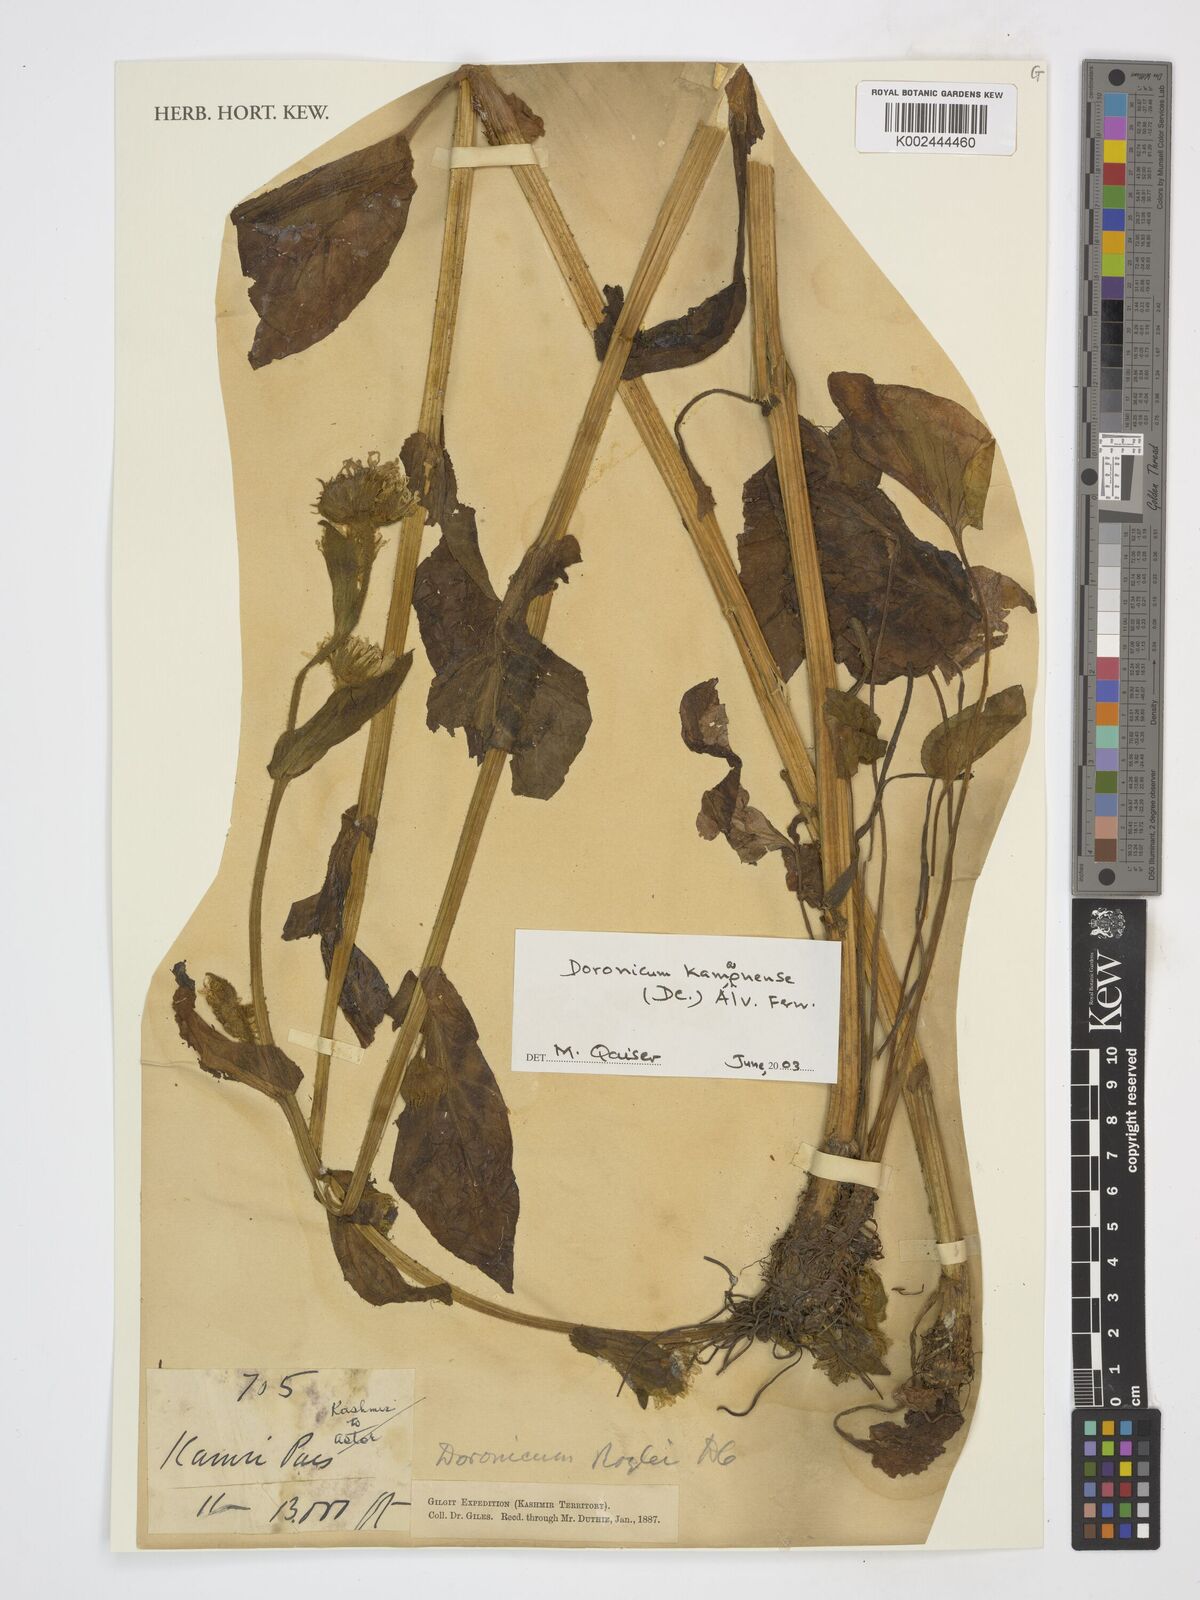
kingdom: Plantae
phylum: Tracheophyta
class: Magnoliopsida
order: Asterales
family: Asteraceae
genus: Doronicum
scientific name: Doronicum kamaonense
